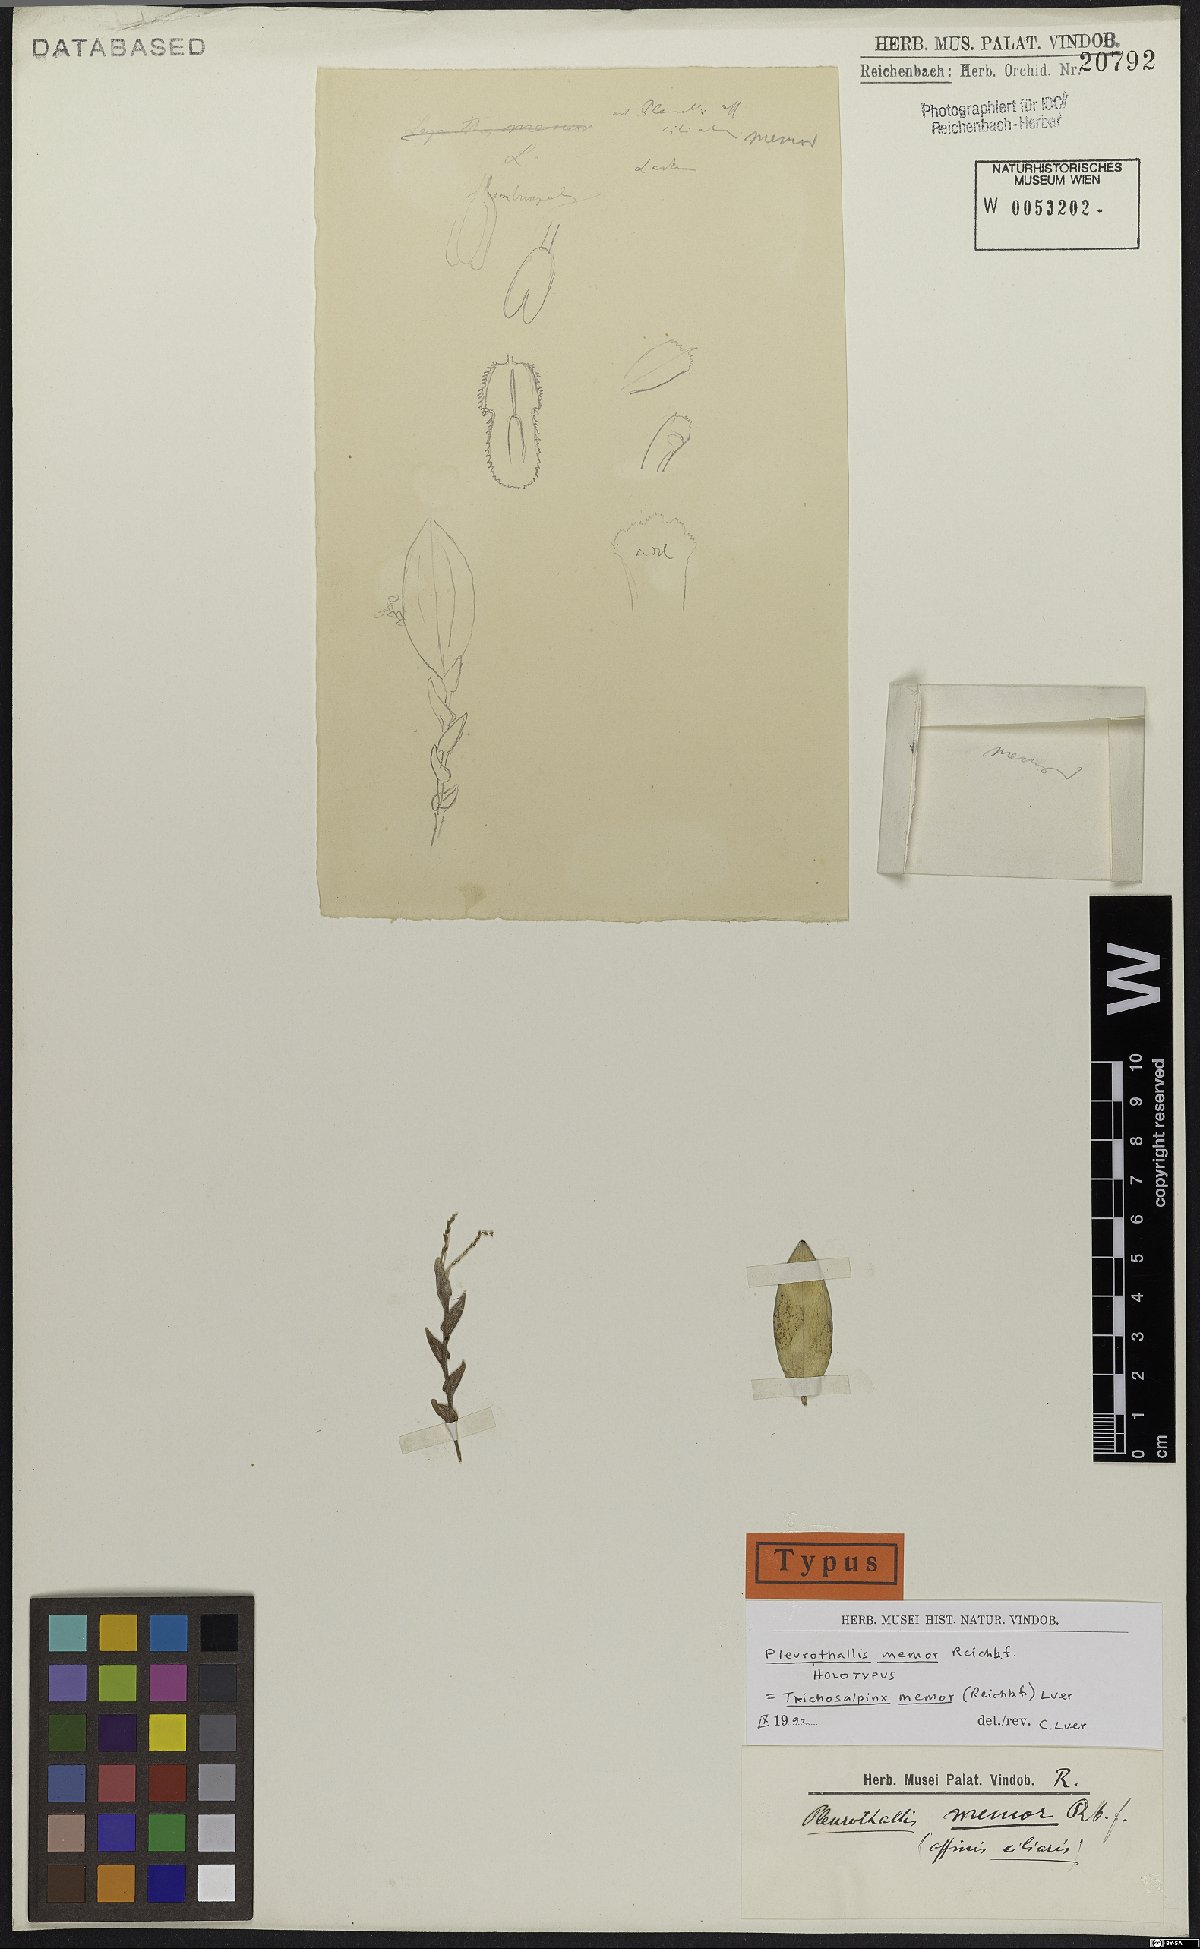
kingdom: Plantae
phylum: Tracheophyta
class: Liliopsida
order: Asparagales
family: Orchidaceae
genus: Trichosalpinx
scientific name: Trichosalpinx memor
